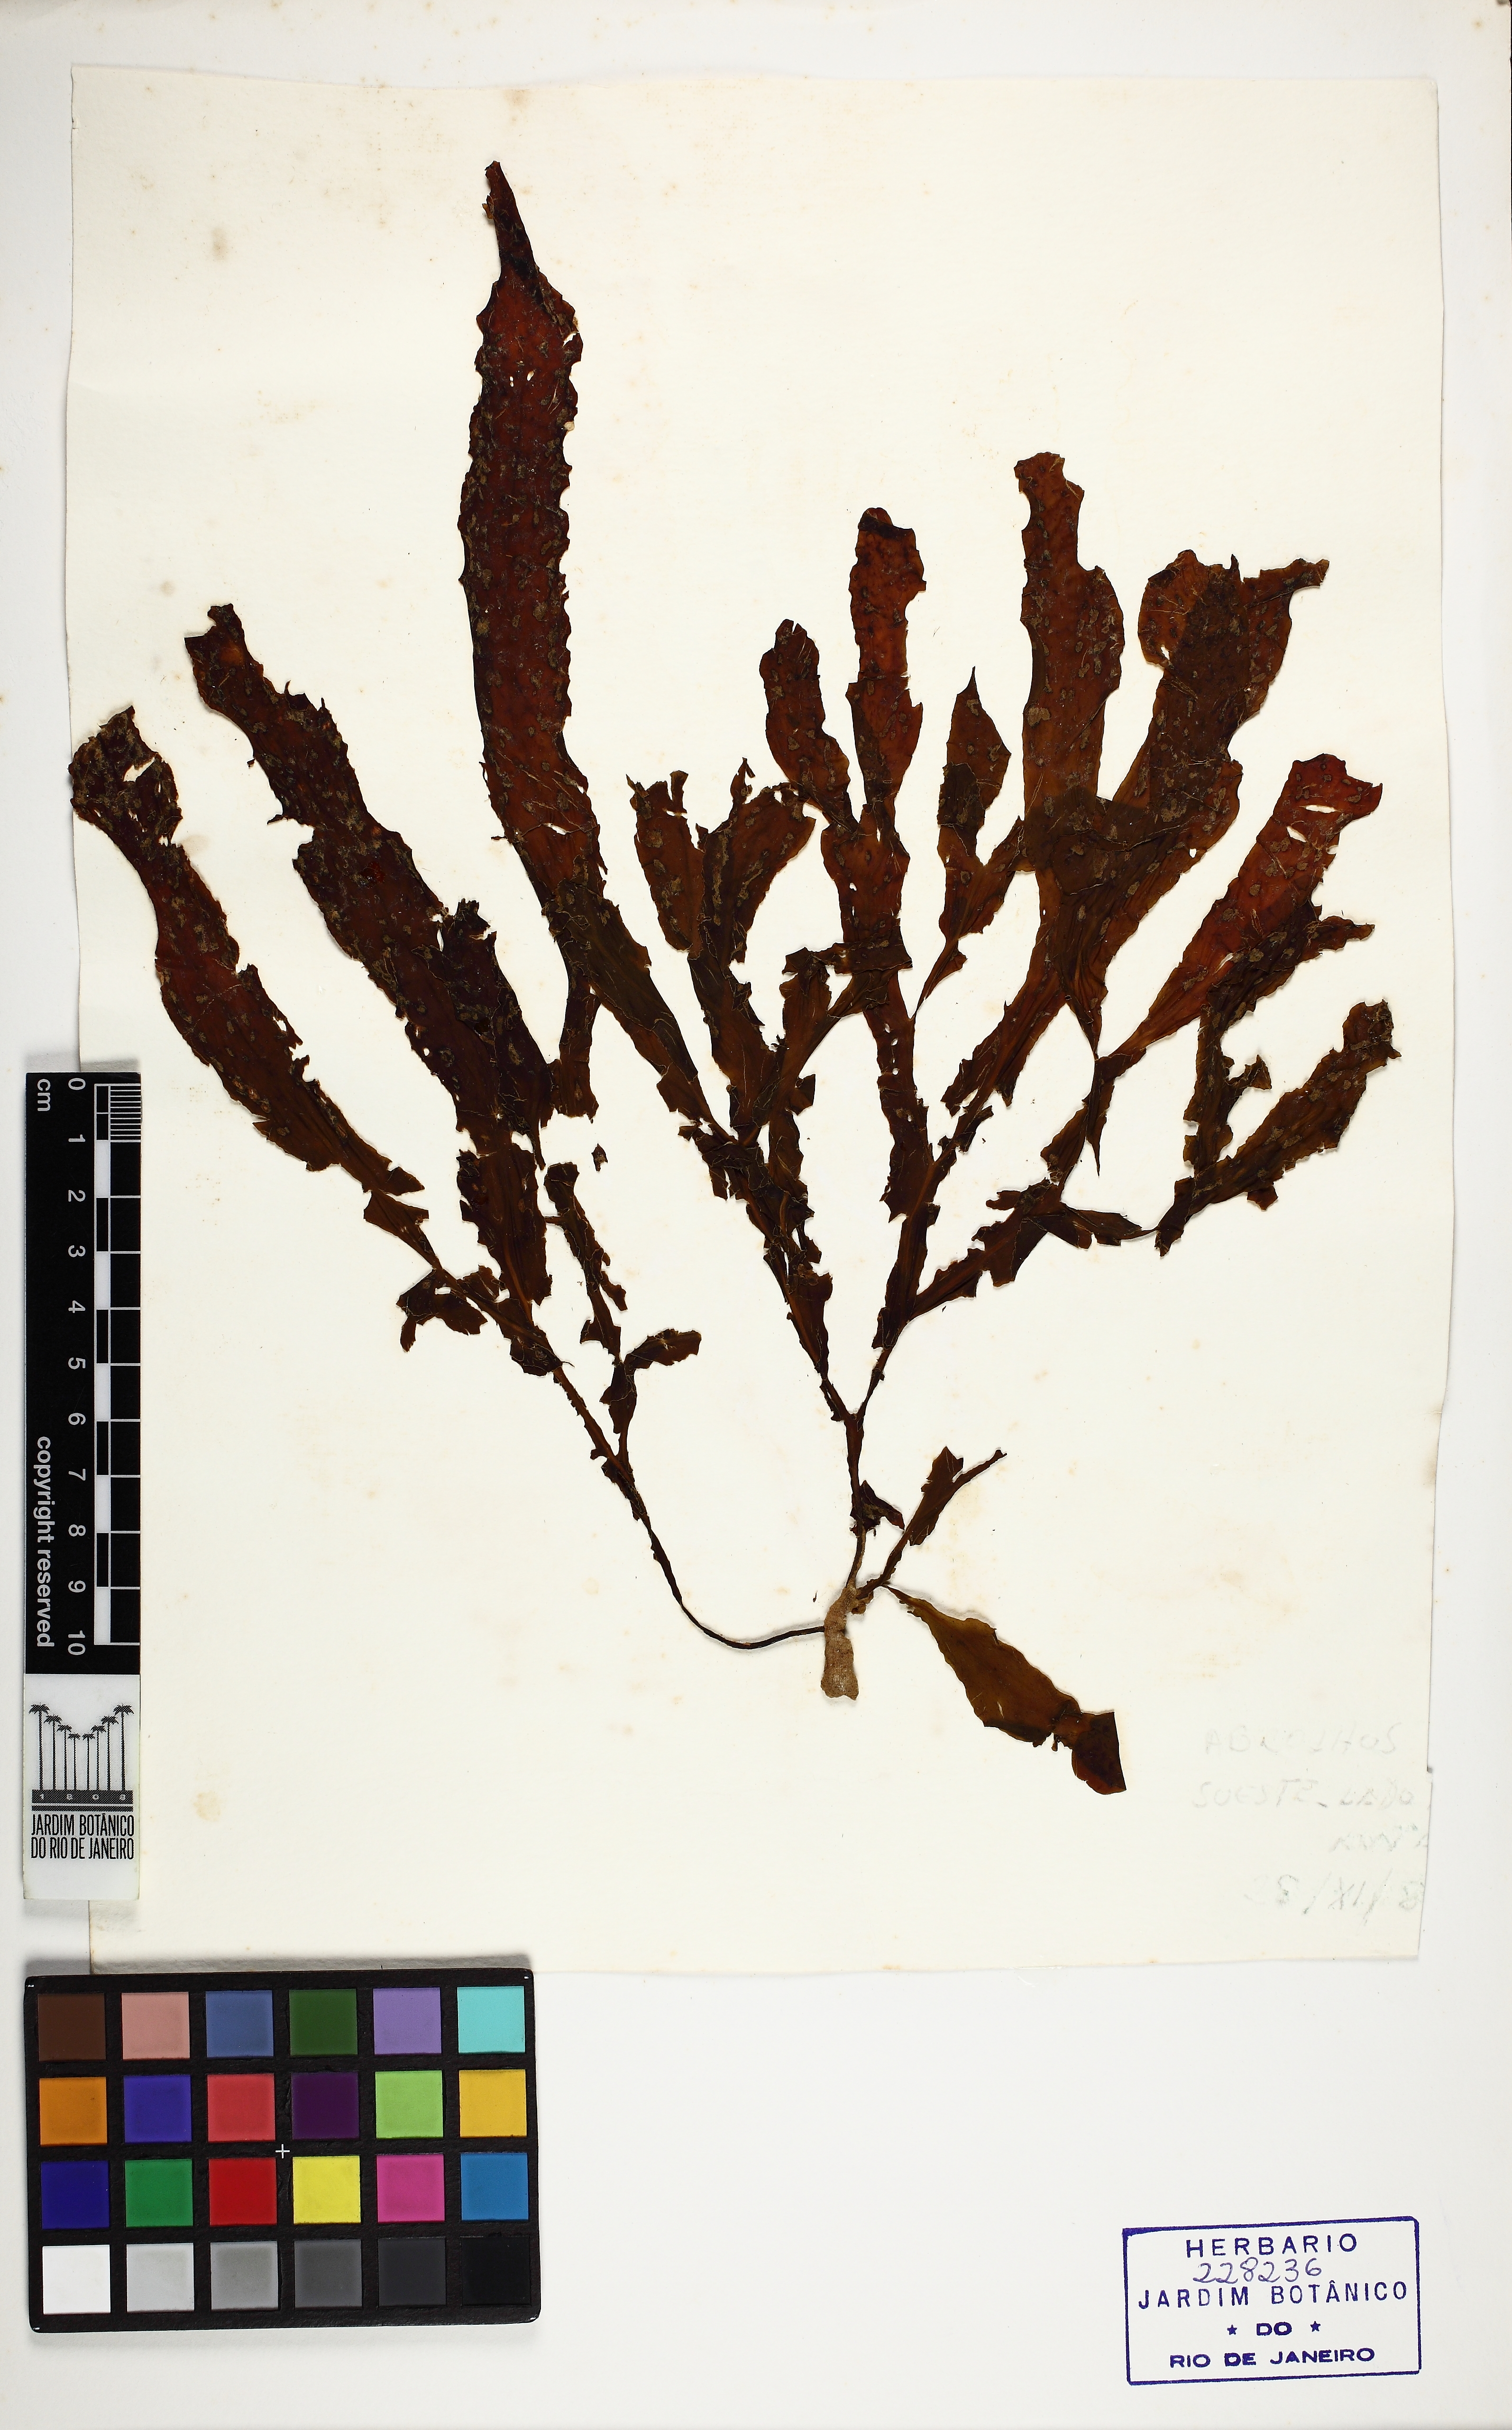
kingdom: Chromista
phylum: Ochrophyta
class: Phaeophyceae
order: Dictyotales
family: Dictyotaceae
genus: Dictyopteris
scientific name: Dictyopteris justii
